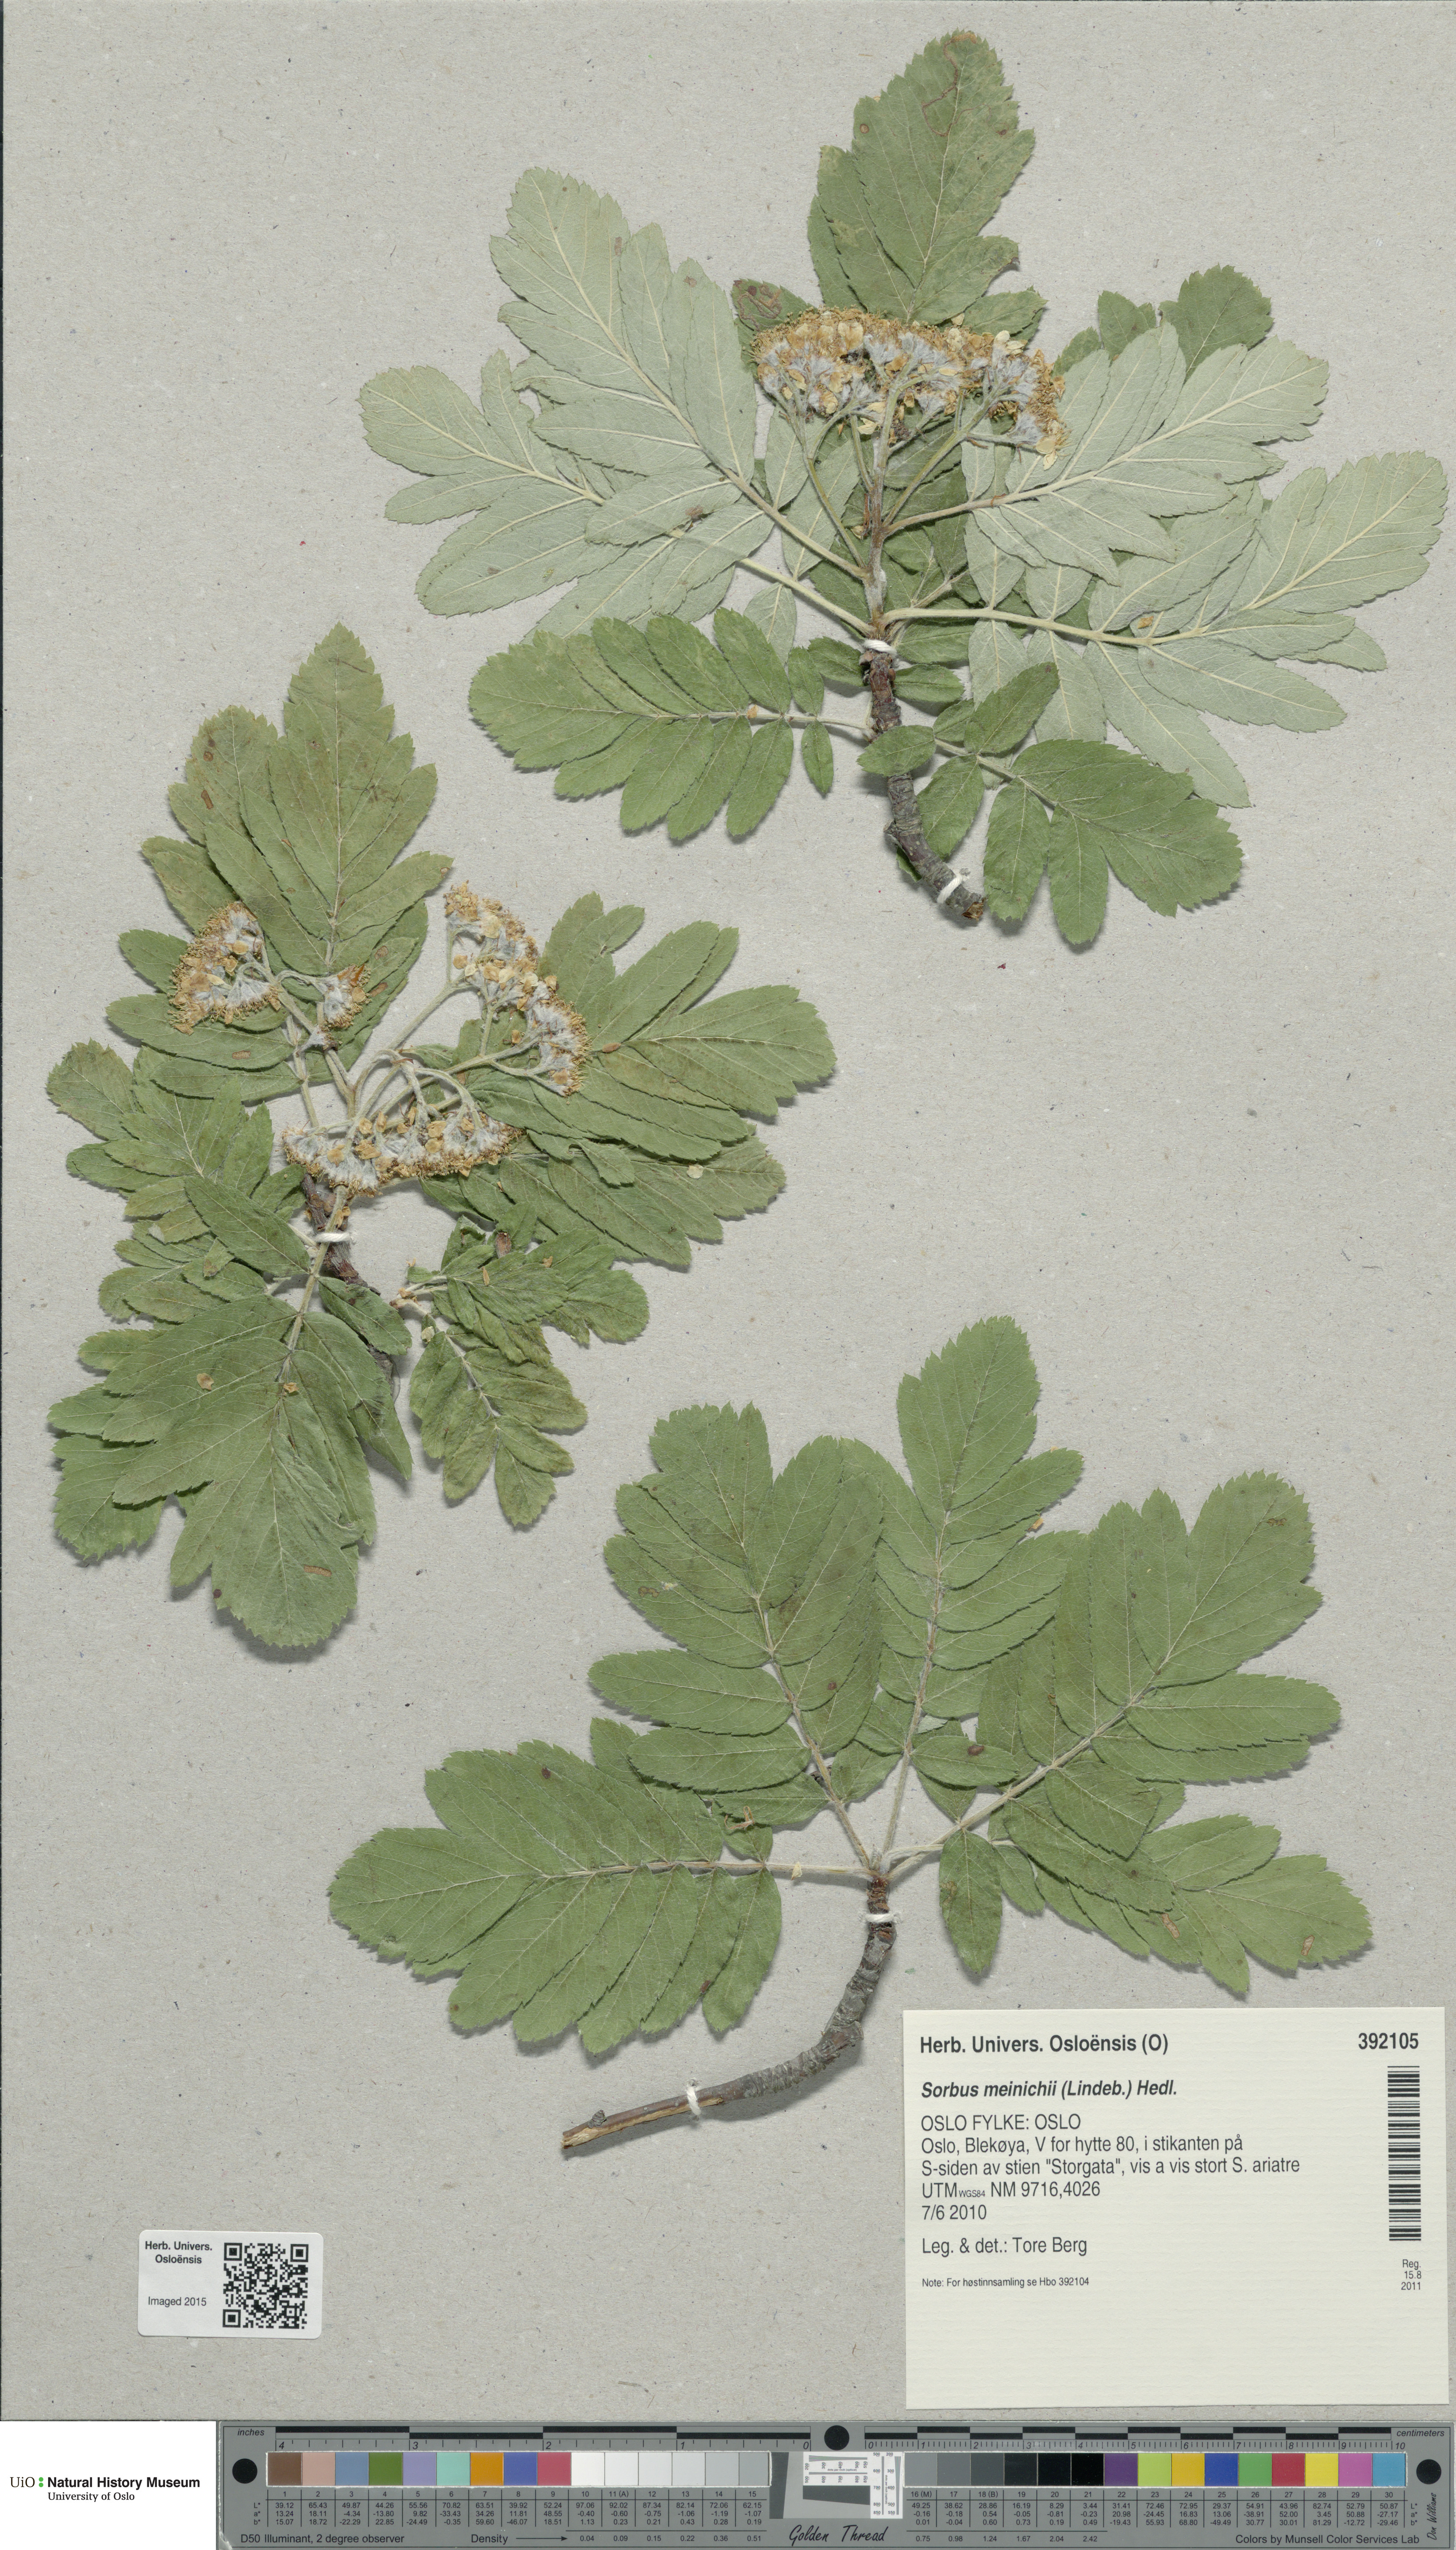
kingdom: Plantae
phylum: Tracheophyta
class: Magnoliopsida
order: Rosales
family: Rosaceae
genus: Hedlundia
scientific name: Hedlundia meinichii
